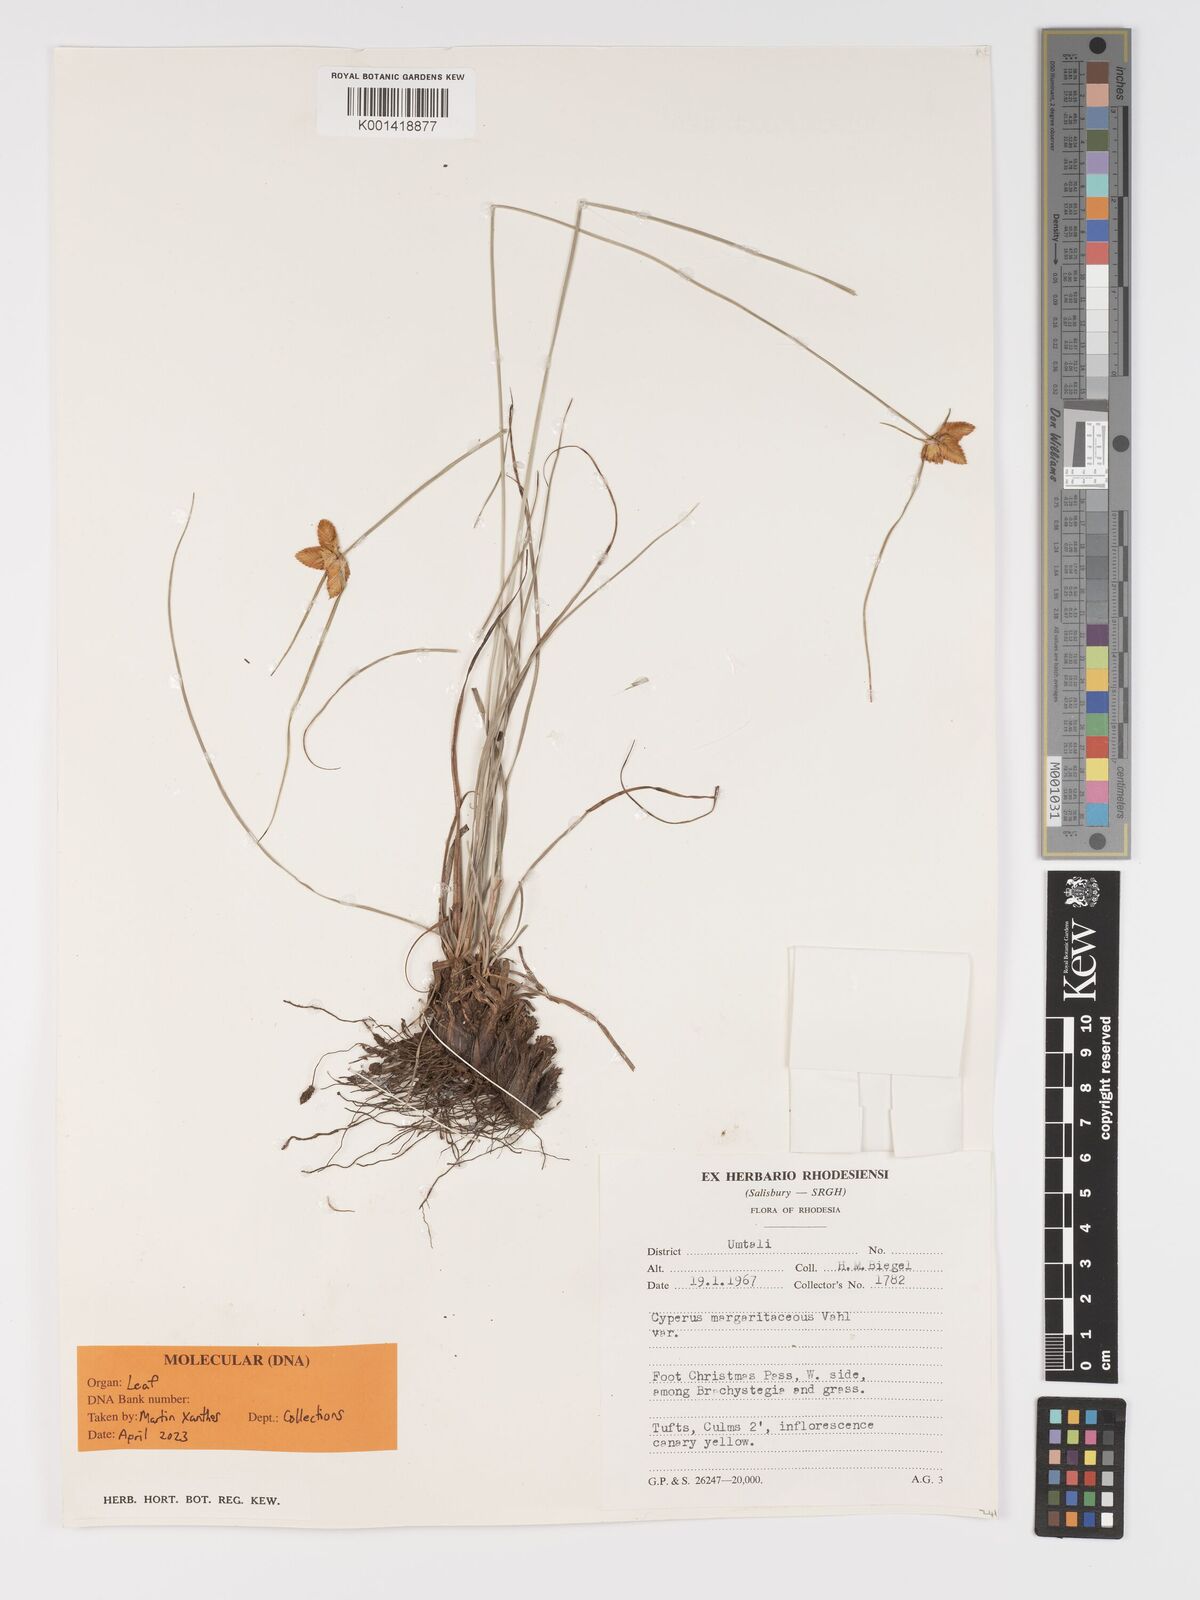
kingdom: Plantae
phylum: Tracheophyta
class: Liliopsida
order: Poales
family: Cyperaceae
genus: Cyperus
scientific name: Cyperus sphaerocephalus
